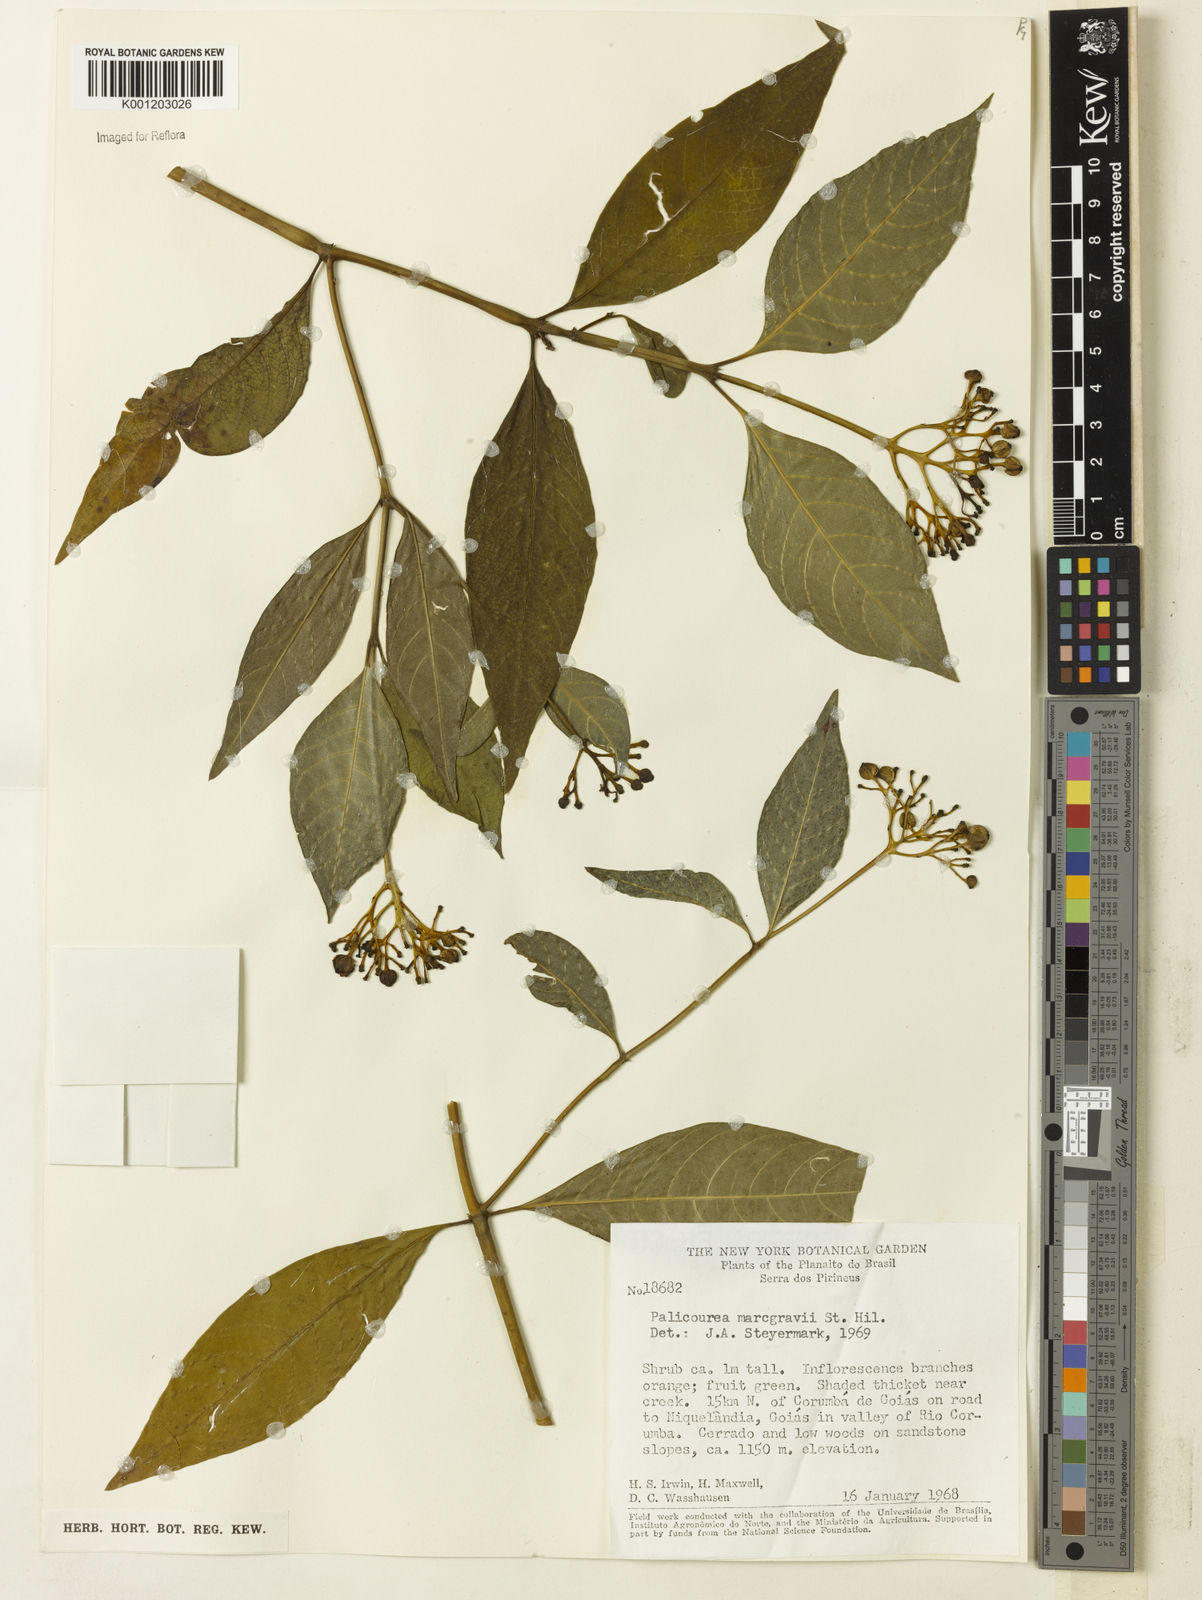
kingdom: Plantae
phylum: Tracheophyta
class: Magnoliopsida
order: Gentianales
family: Rubiaceae
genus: Palicourea
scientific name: Palicourea marcgravii
